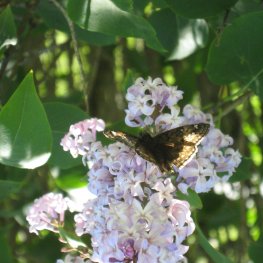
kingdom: Animalia
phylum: Arthropoda
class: Insecta
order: Lepidoptera
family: Hesperiidae
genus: Gesta
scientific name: Gesta
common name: Juvenal's Duskywing
